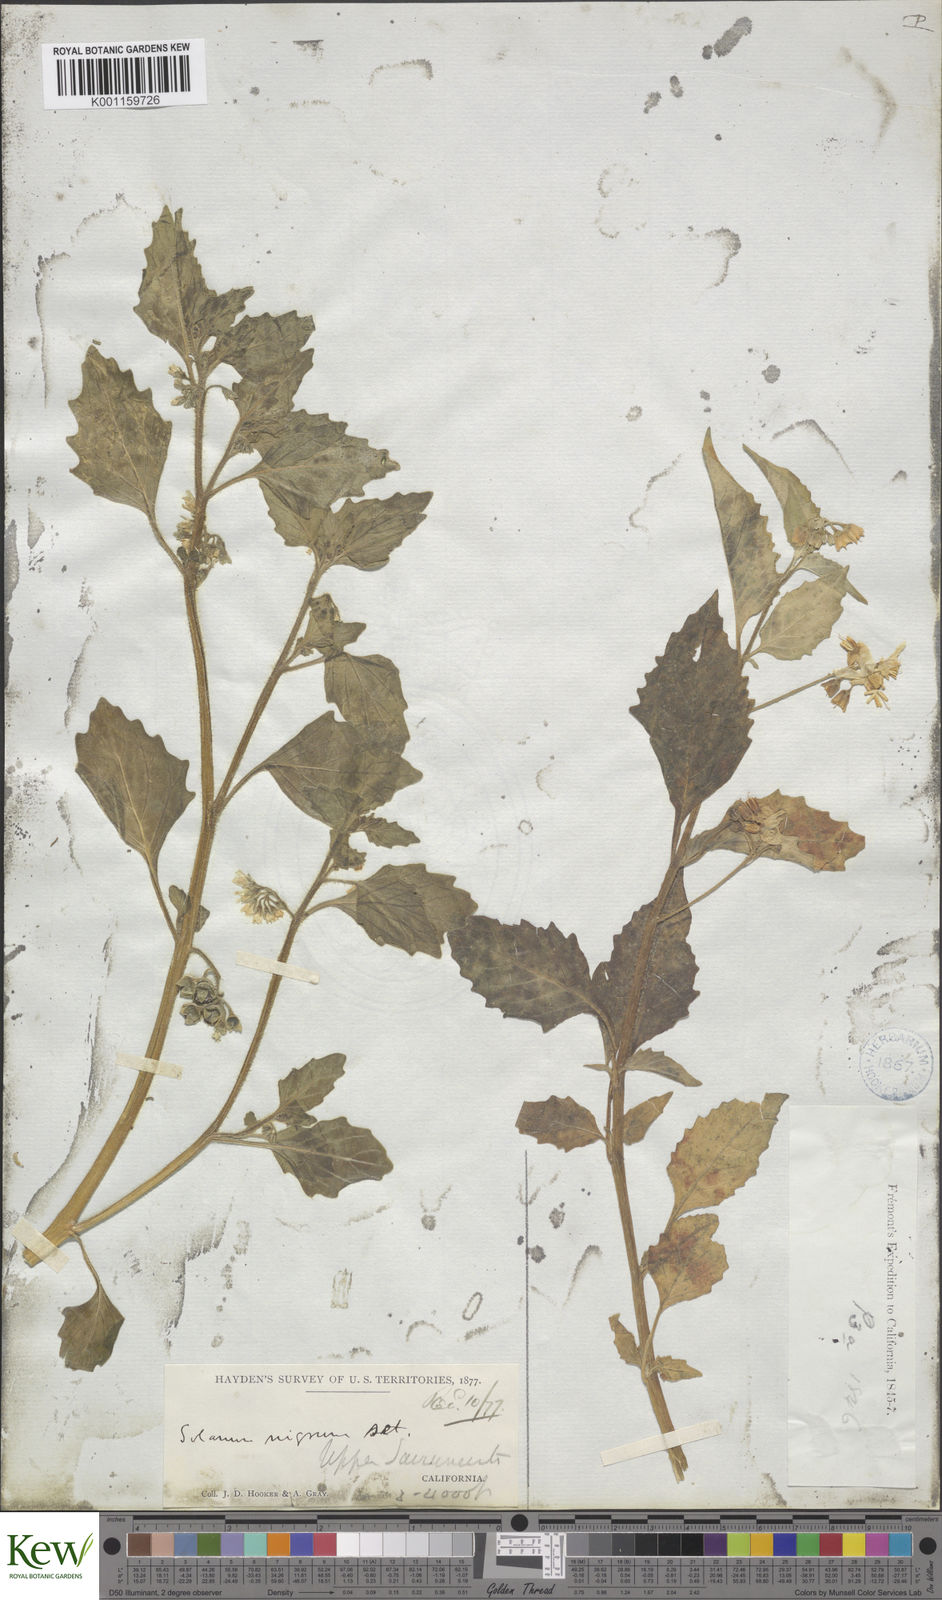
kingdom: Plantae
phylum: Tracheophyta
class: Magnoliopsida
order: Solanales
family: Solanaceae
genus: Solanum
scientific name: Solanum nigrum
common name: Black nightshade
